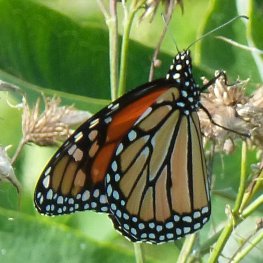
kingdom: Animalia
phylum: Arthropoda
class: Insecta
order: Lepidoptera
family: Nymphalidae
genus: Danaus
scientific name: Danaus plexippus
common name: Monarch
